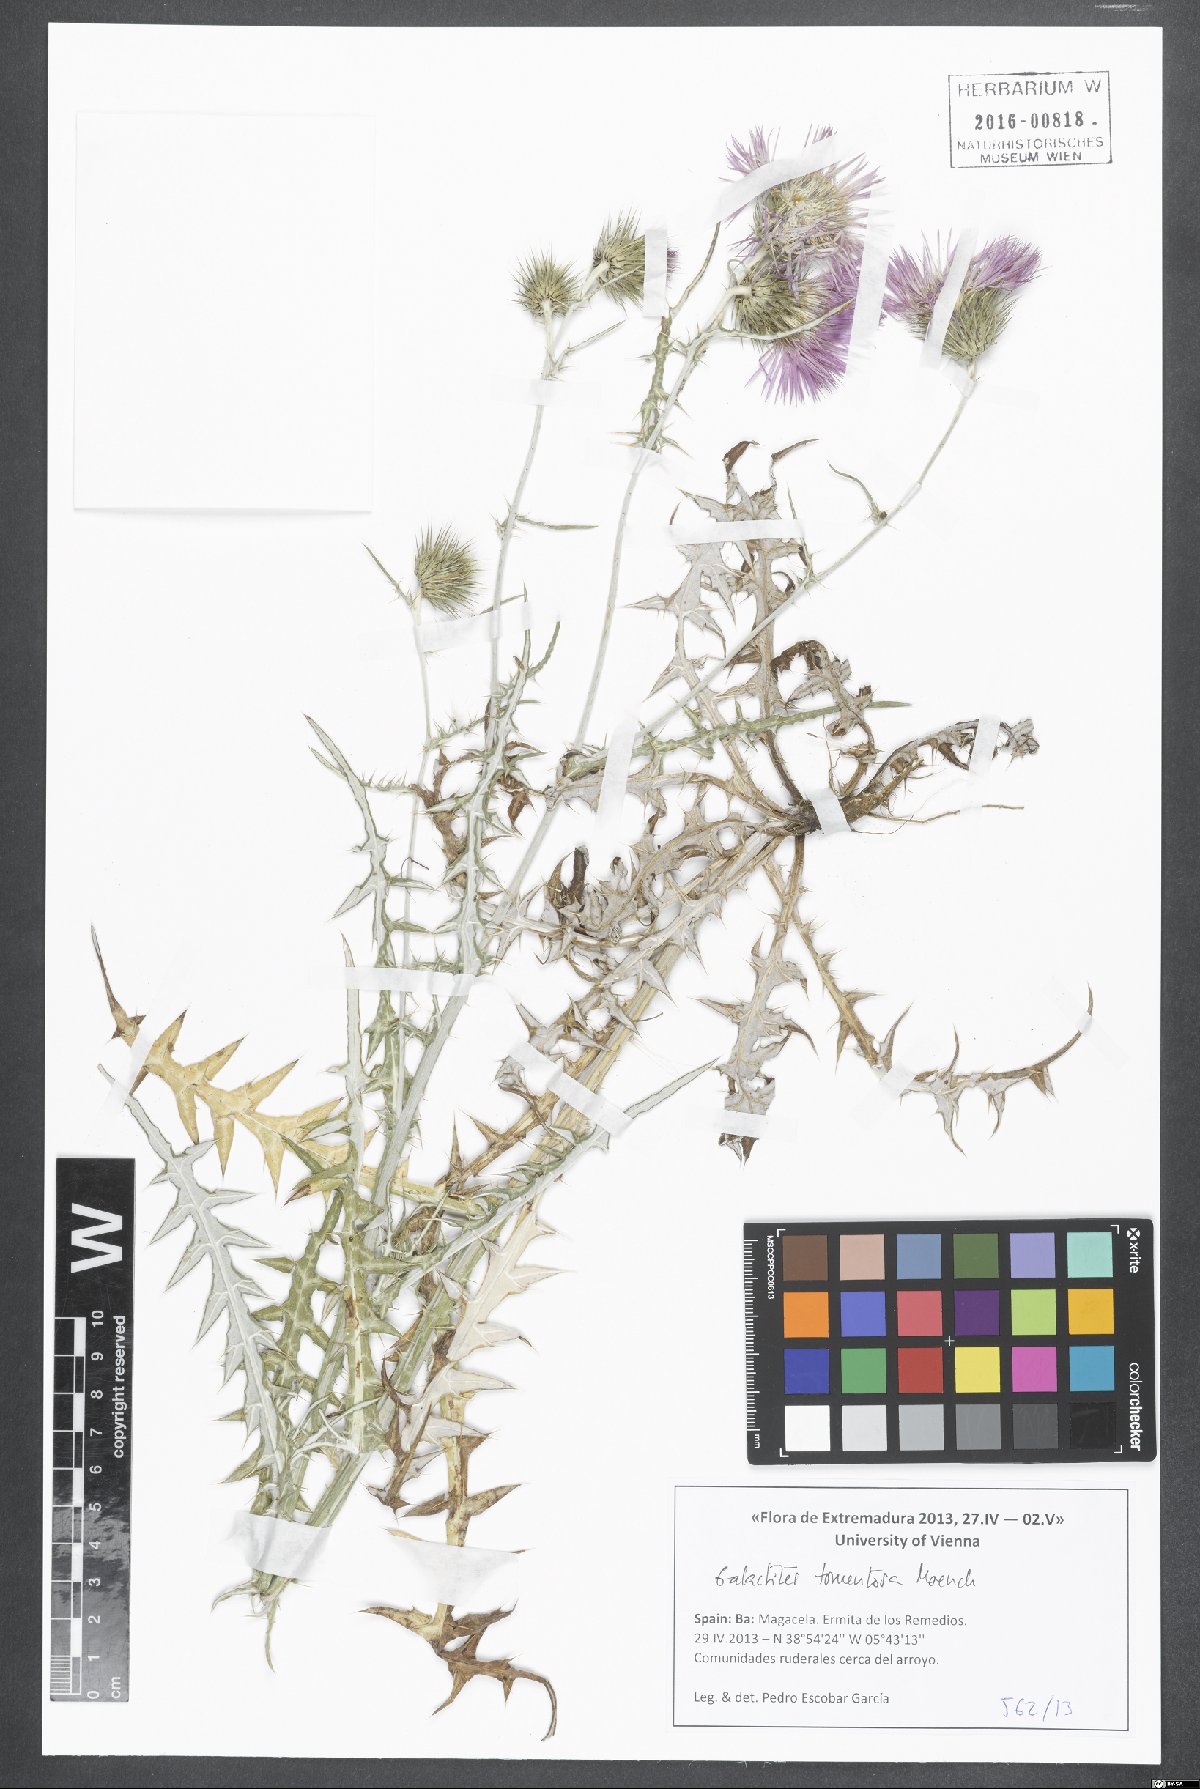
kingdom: Plantae
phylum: Tracheophyta
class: Magnoliopsida
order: Asterales
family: Asteraceae
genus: Galactites
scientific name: Galactites tomentosa
